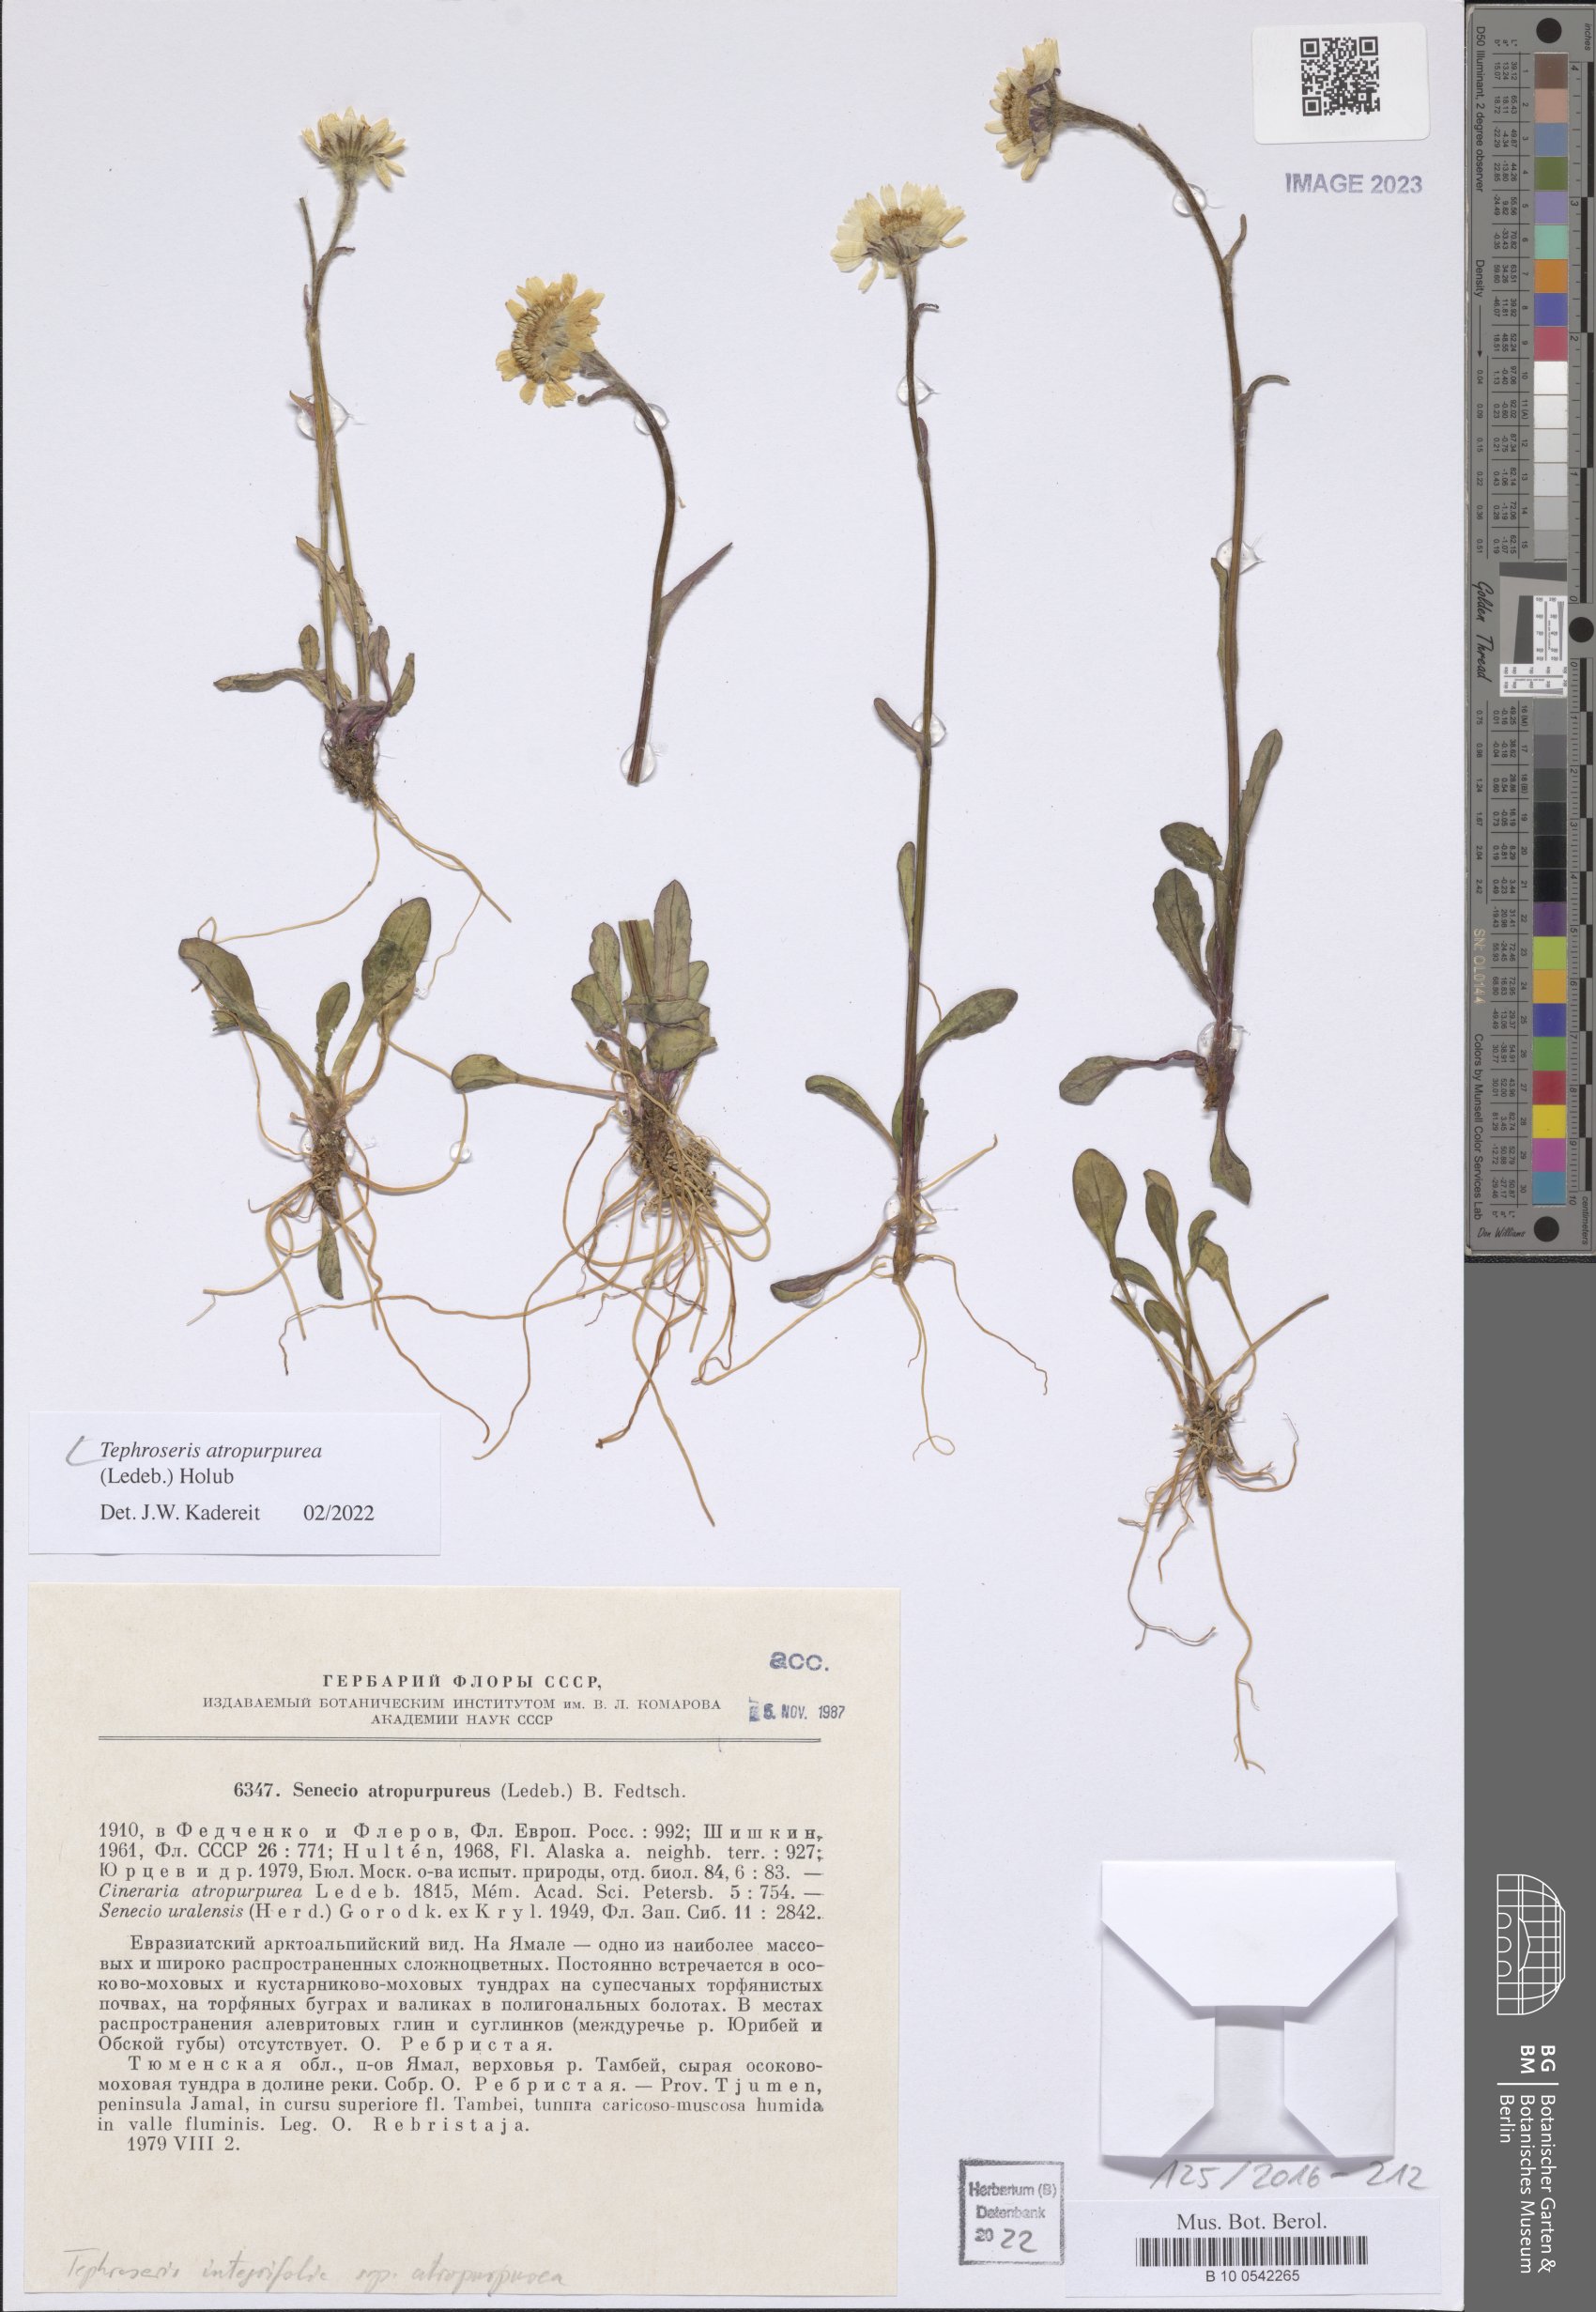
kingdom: Plantae
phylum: Tracheophyta
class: Magnoliopsida
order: Asterales
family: Asteraceae
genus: Tephroseris
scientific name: Tephroseris integrifolia
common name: Field fleawort
